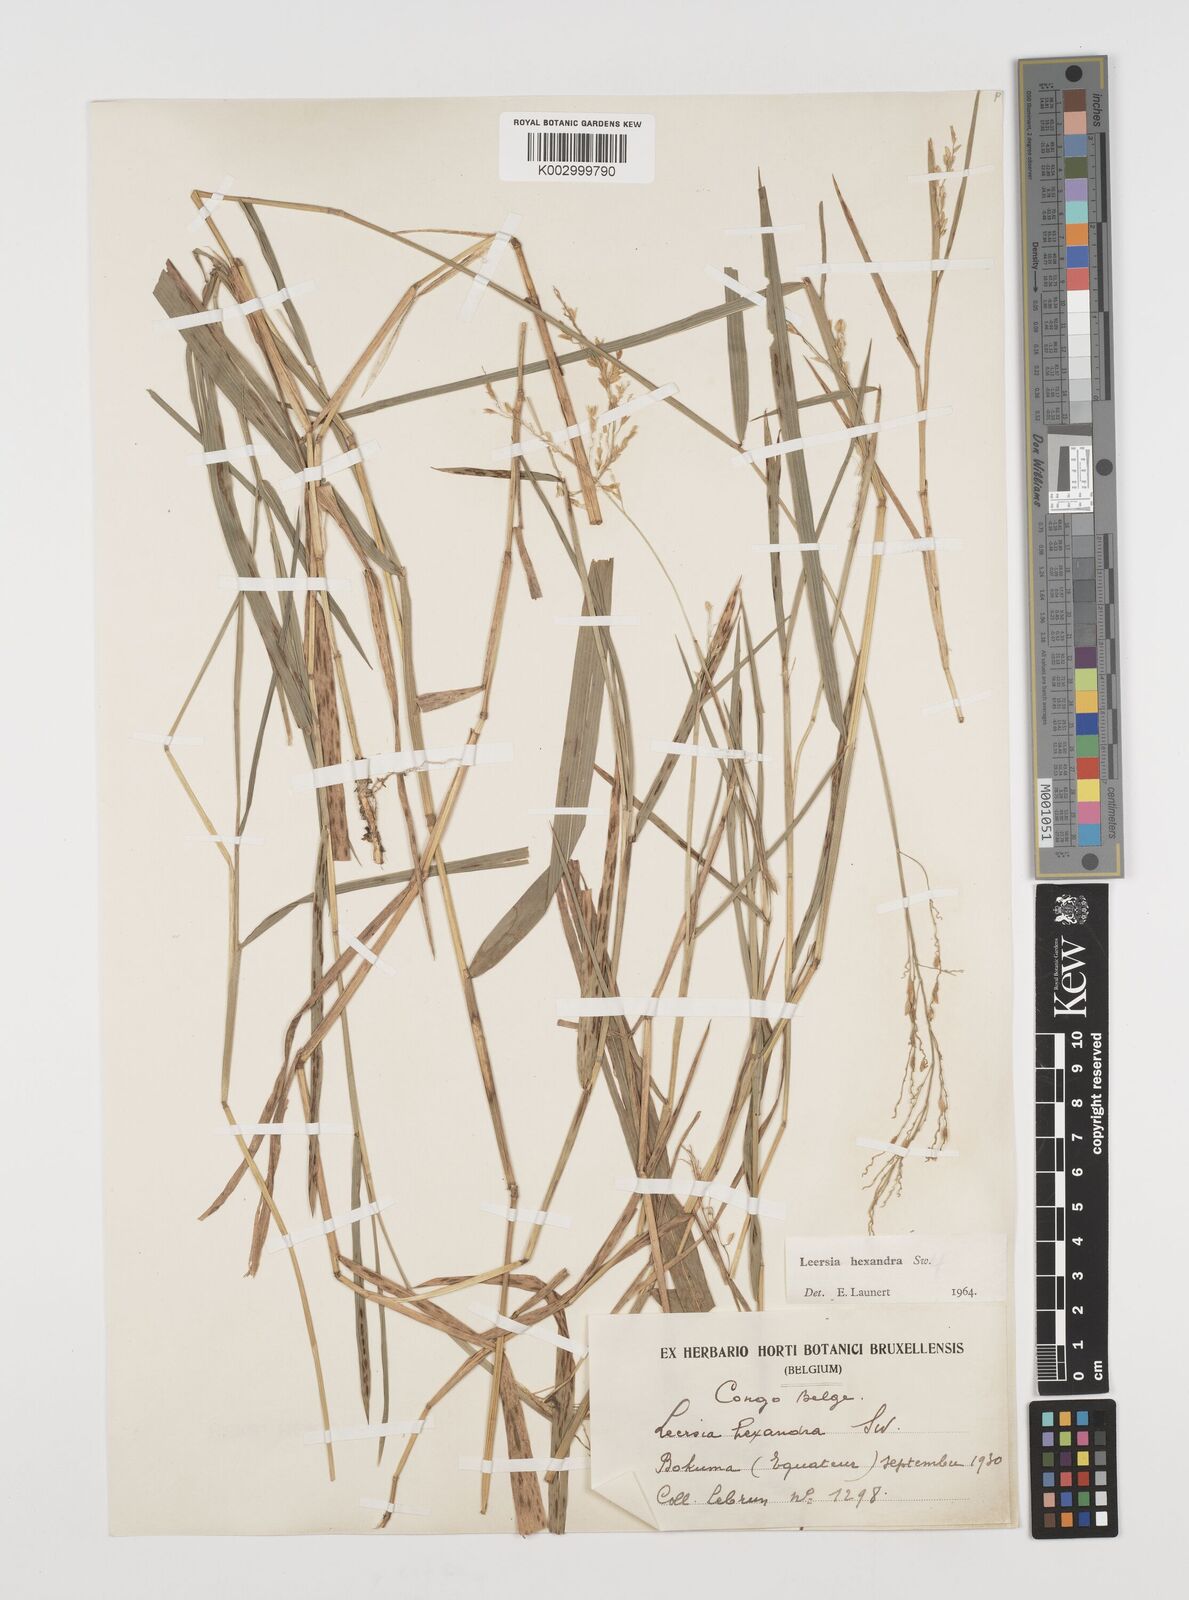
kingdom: Plantae
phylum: Tracheophyta
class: Liliopsida
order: Poales
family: Poaceae
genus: Leersia
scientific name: Leersia hexandra
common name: Southern cut grass
